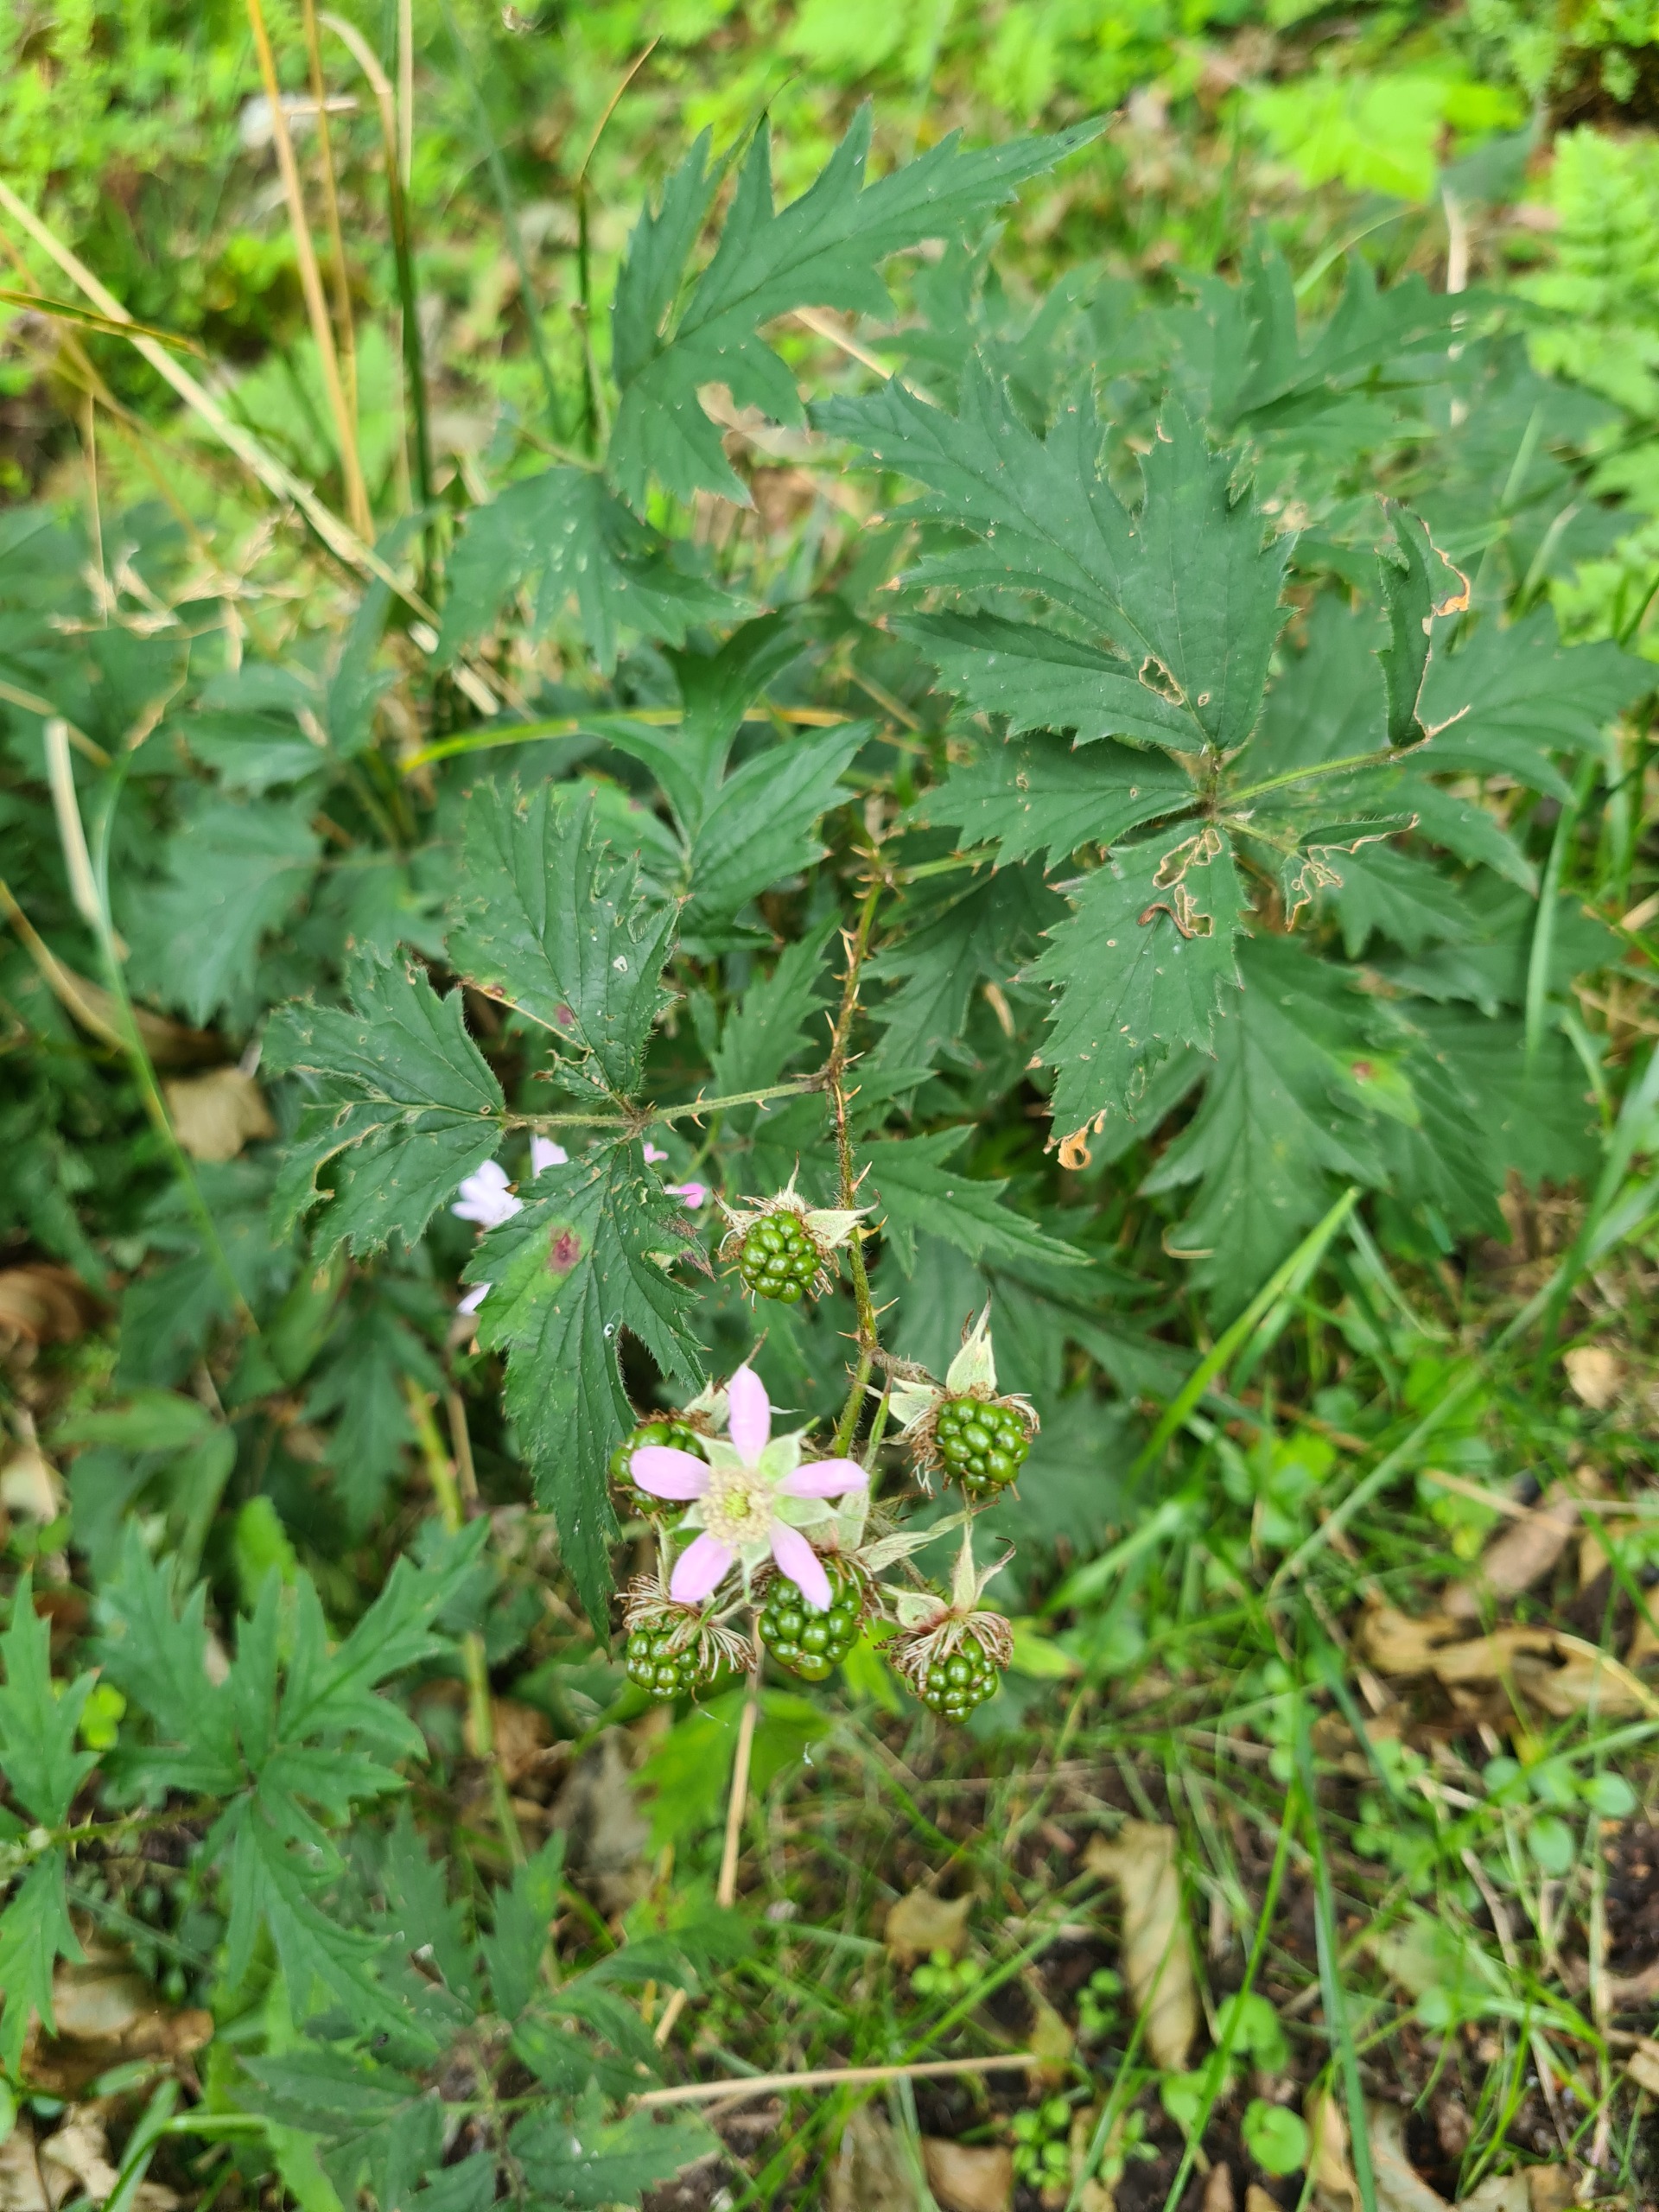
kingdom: Plantae
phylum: Tracheophyta
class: Magnoliopsida
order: Rosales
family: Rosaceae
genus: Rubus
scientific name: Rubus laciniatus
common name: Fliget brombær
